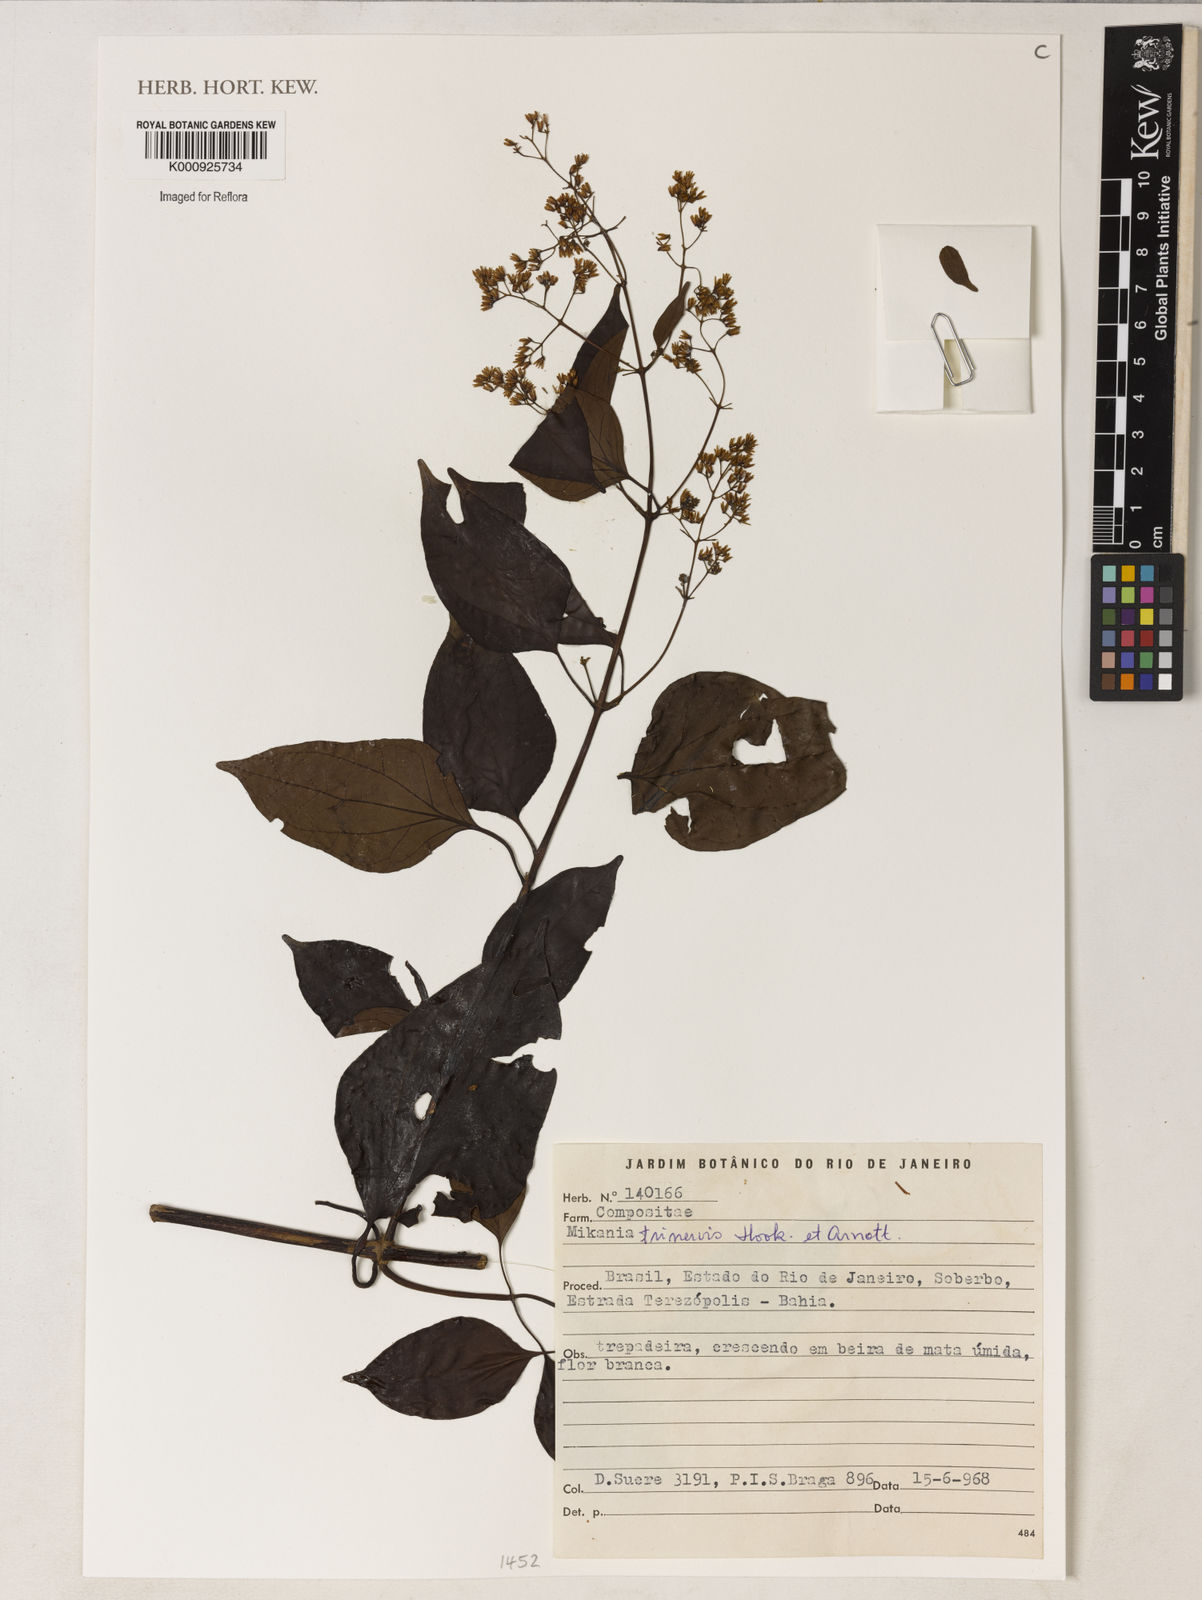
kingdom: Plantae
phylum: Tracheophyta
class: Magnoliopsida
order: Asterales
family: Asteraceae
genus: Mikania
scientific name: Mikania trinervis
